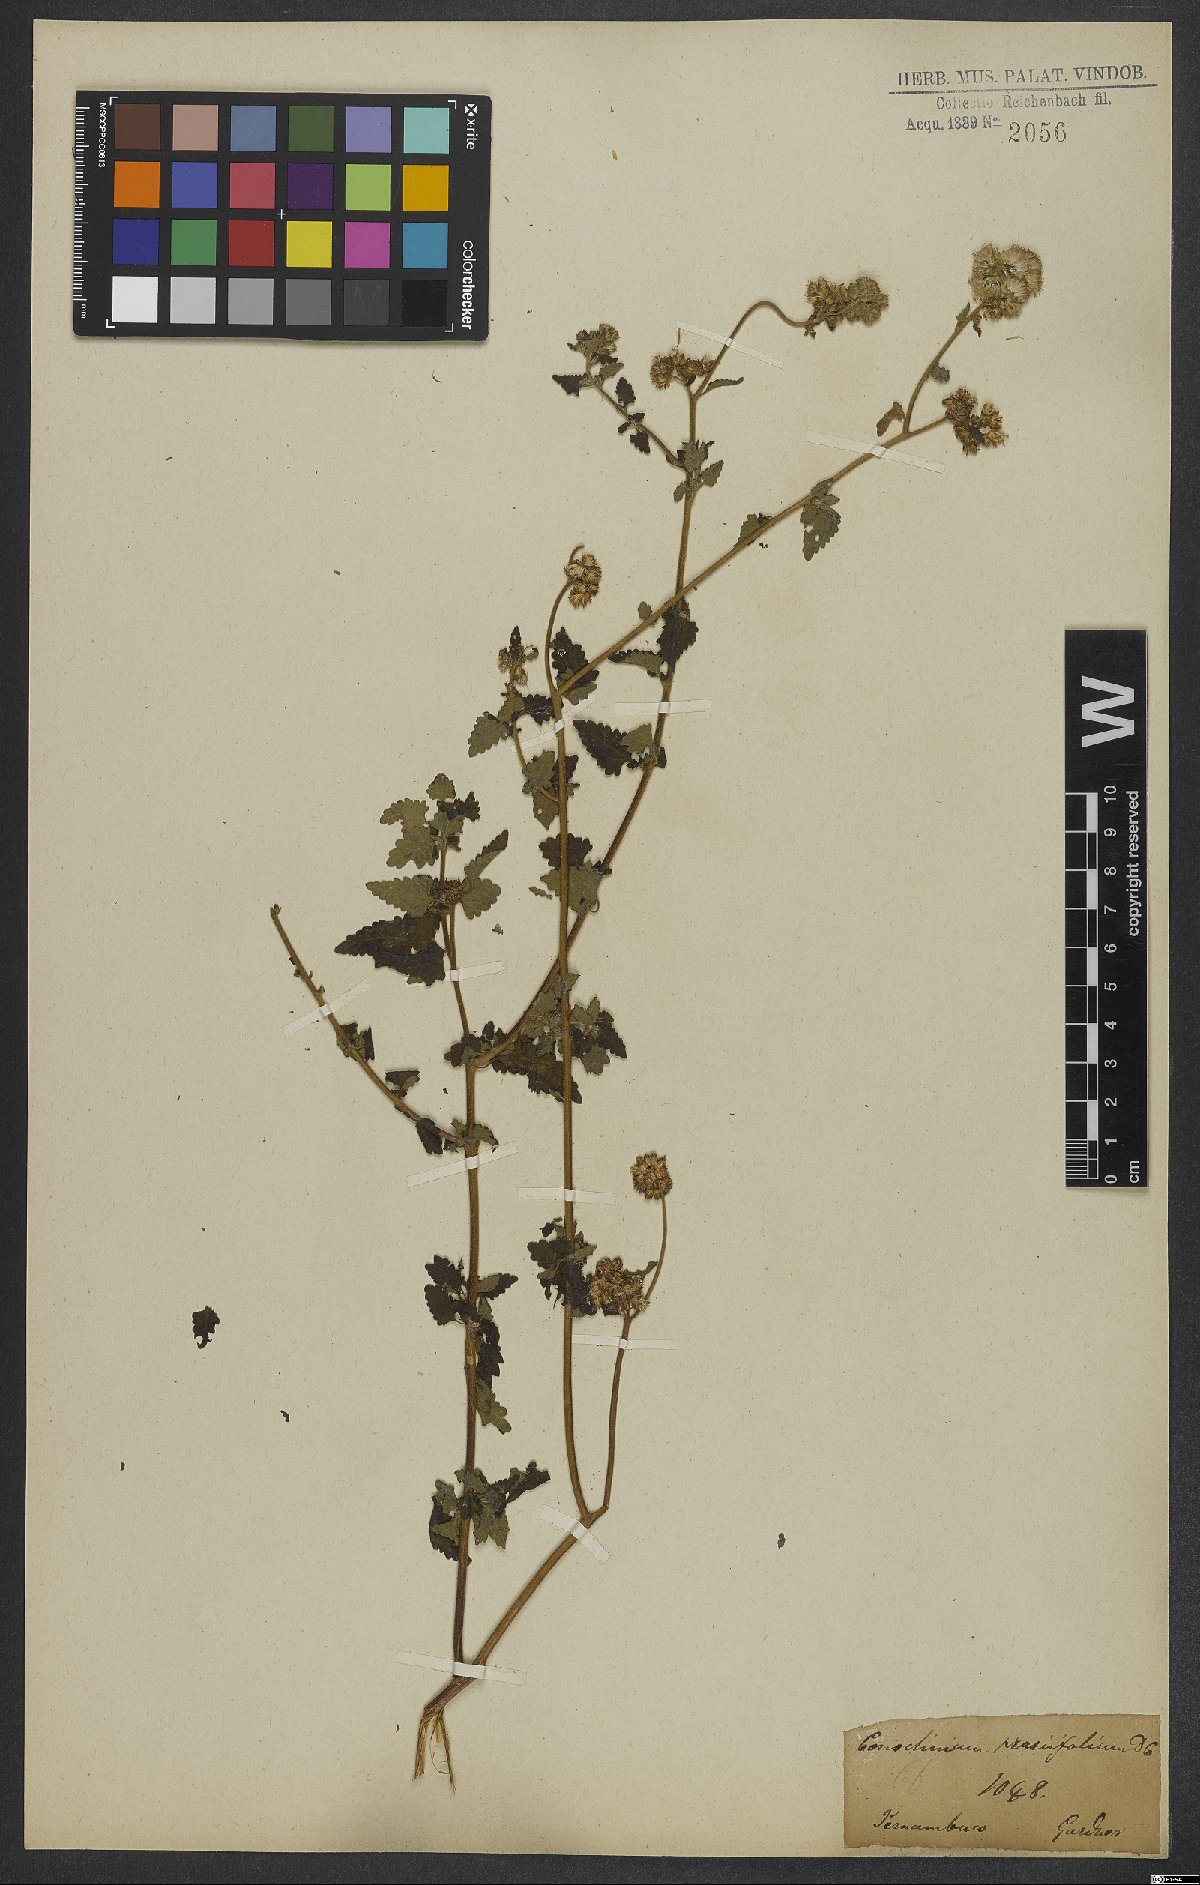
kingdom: Plantae
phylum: Tracheophyta
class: Magnoliopsida
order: Asterales
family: Asteraceae
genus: Conocliniopsis
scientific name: Conocliniopsis grossedentata
